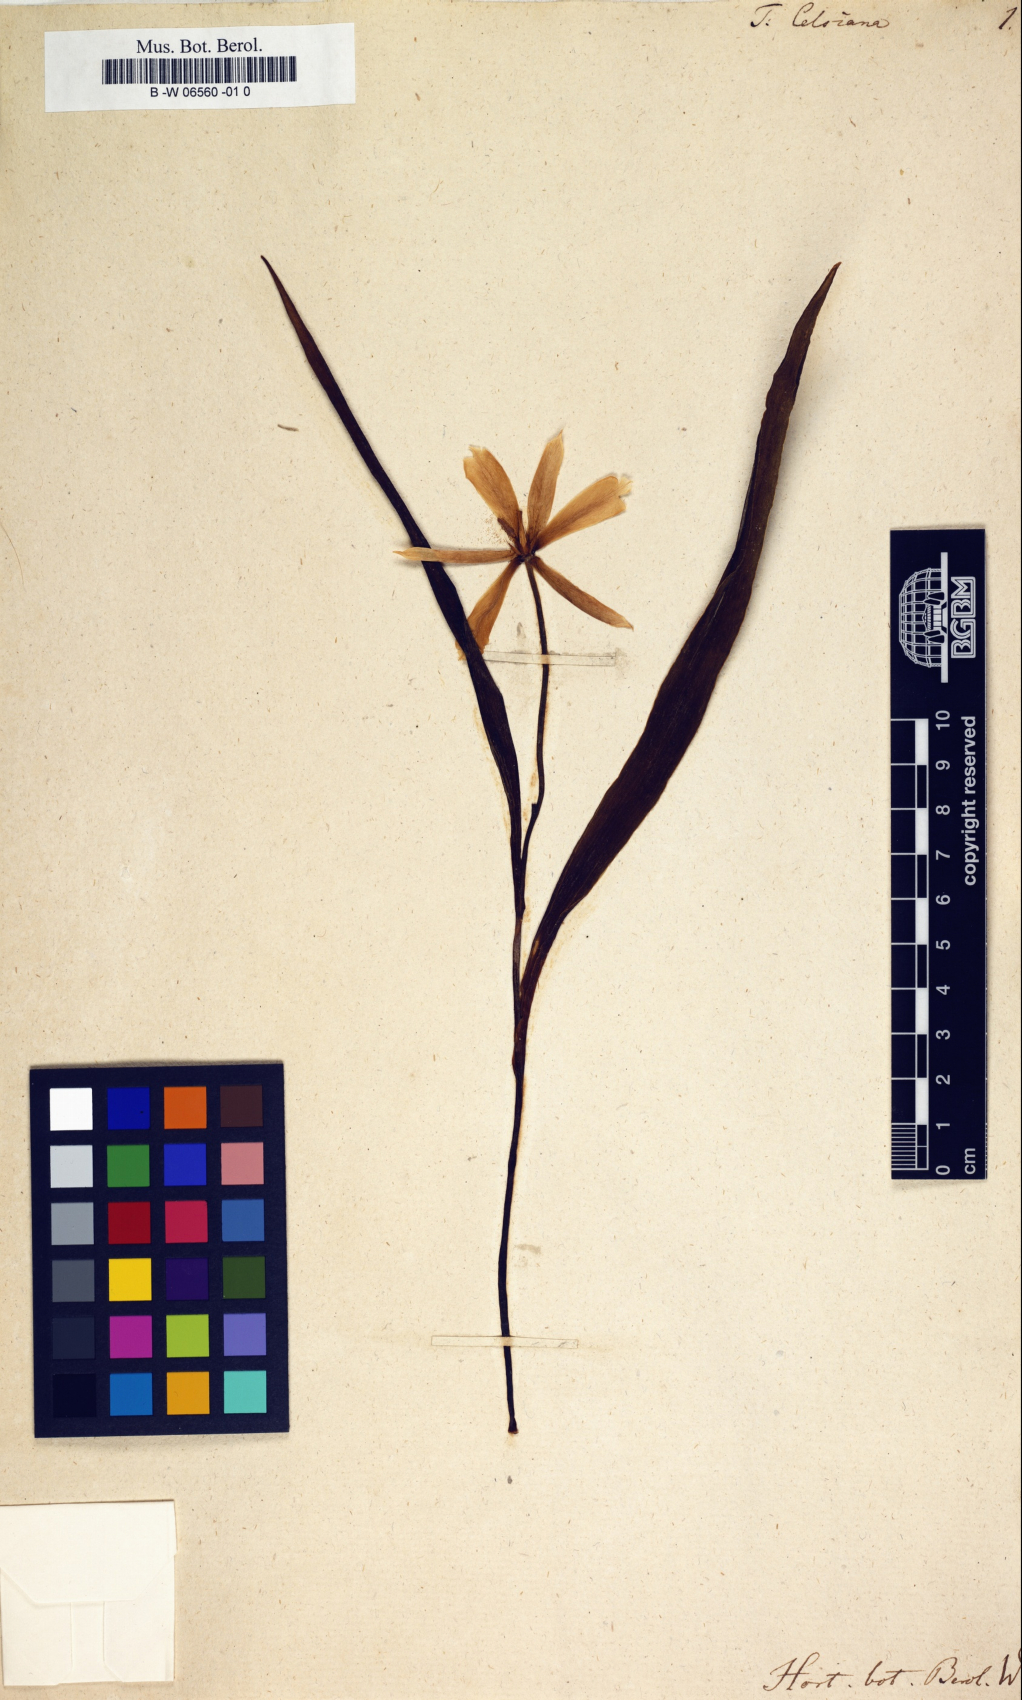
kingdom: Plantae
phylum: Tracheophyta
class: Liliopsida
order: Liliales
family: Liliaceae
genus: Tulipa
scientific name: Tulipa celsiana
